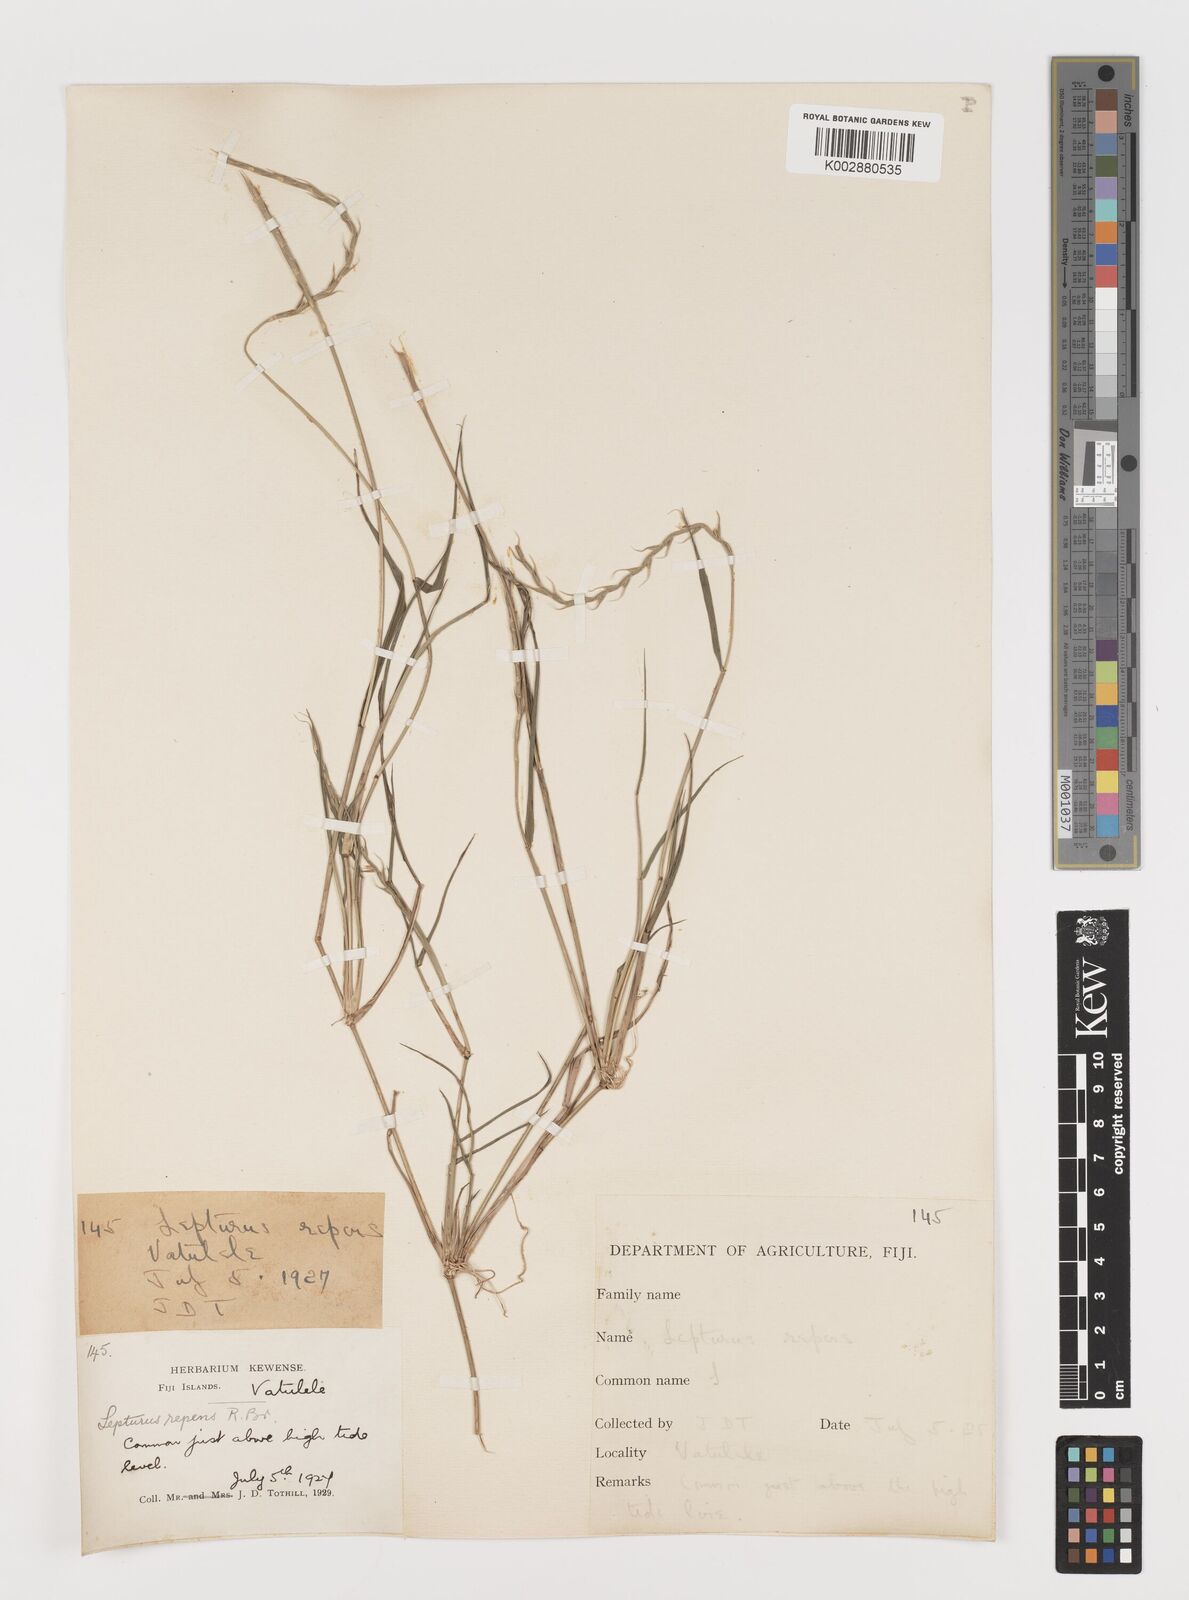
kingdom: Plantae
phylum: Tracheophyta
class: Liliopsida
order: Poales
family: Poaceae
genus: Lepturus
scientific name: Lepturus repens
